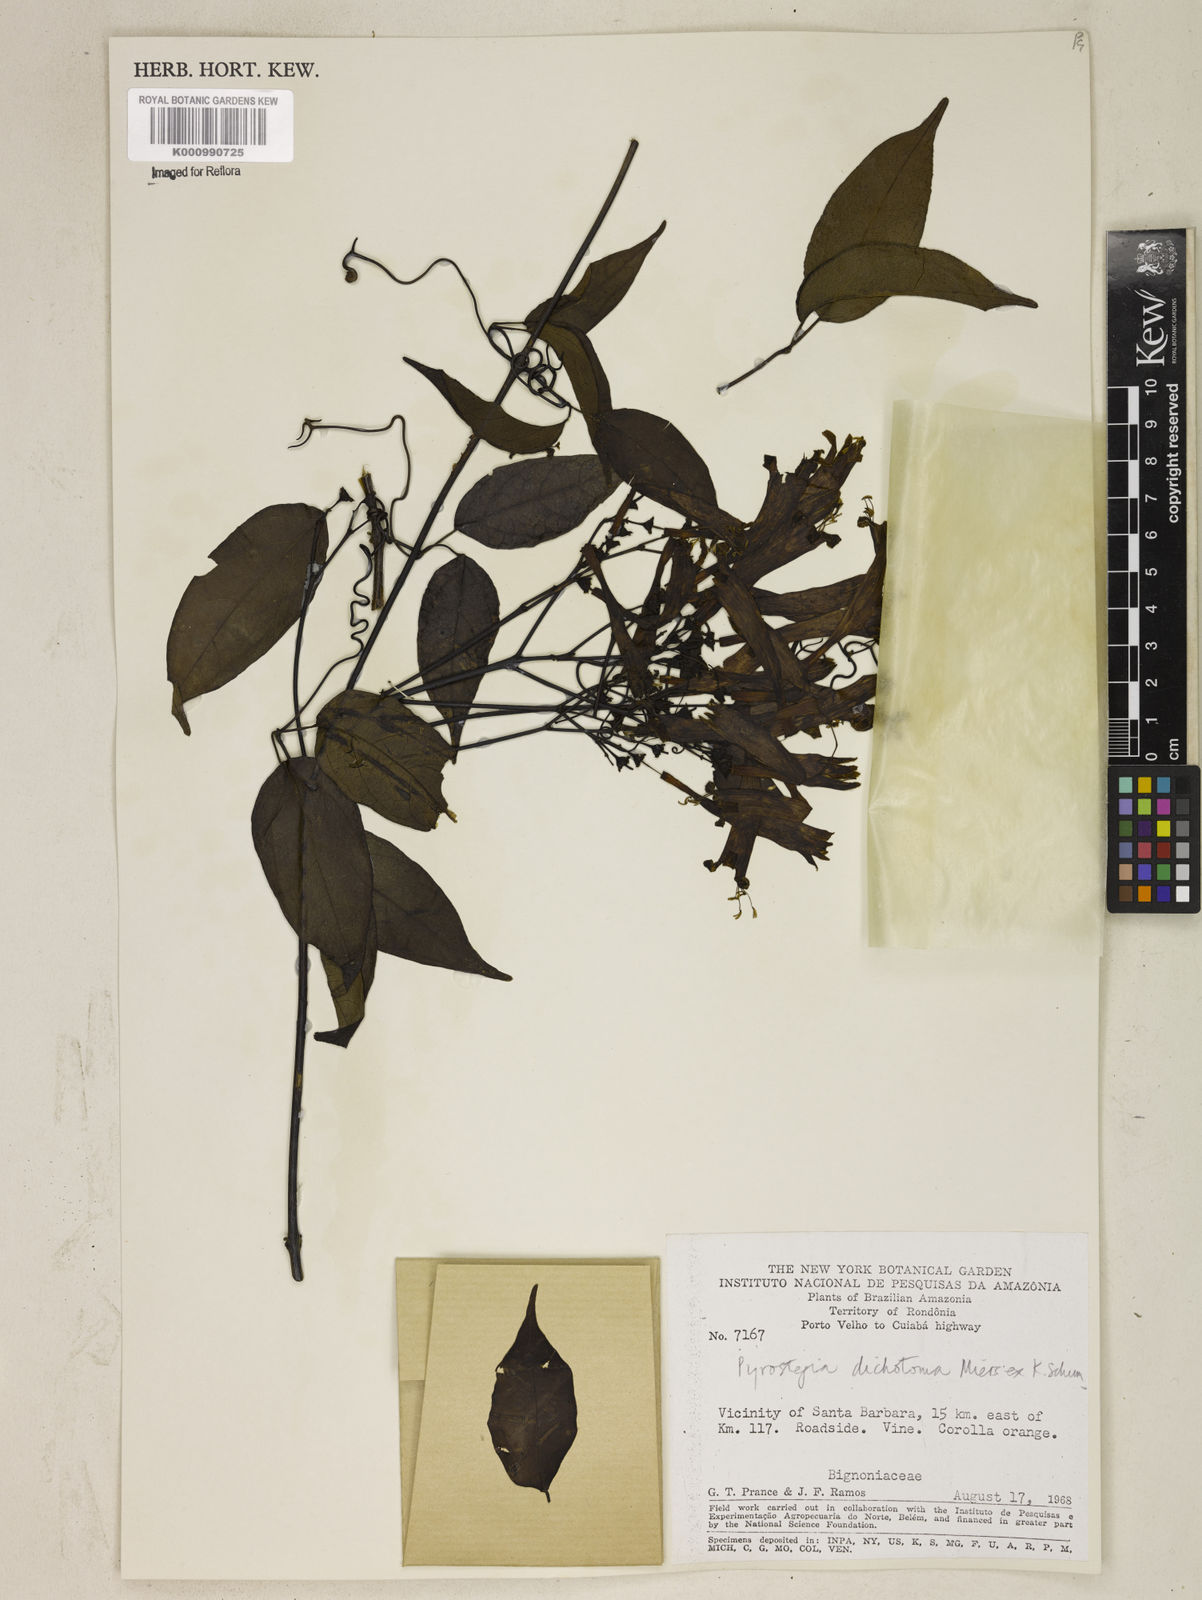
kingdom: Plantae
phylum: Tracheophyta
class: Magnoliopsida
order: Lamiales
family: Bignoniaceae
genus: Pyrostegia
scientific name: Pyrostegia
